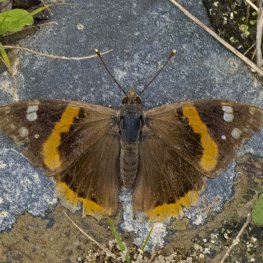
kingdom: Animalia
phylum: Arthropoda
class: Insecta
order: Lepidoptera
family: Nymphalidae
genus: Vanessa
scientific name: Vanessa atalanta
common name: Red Admiral
